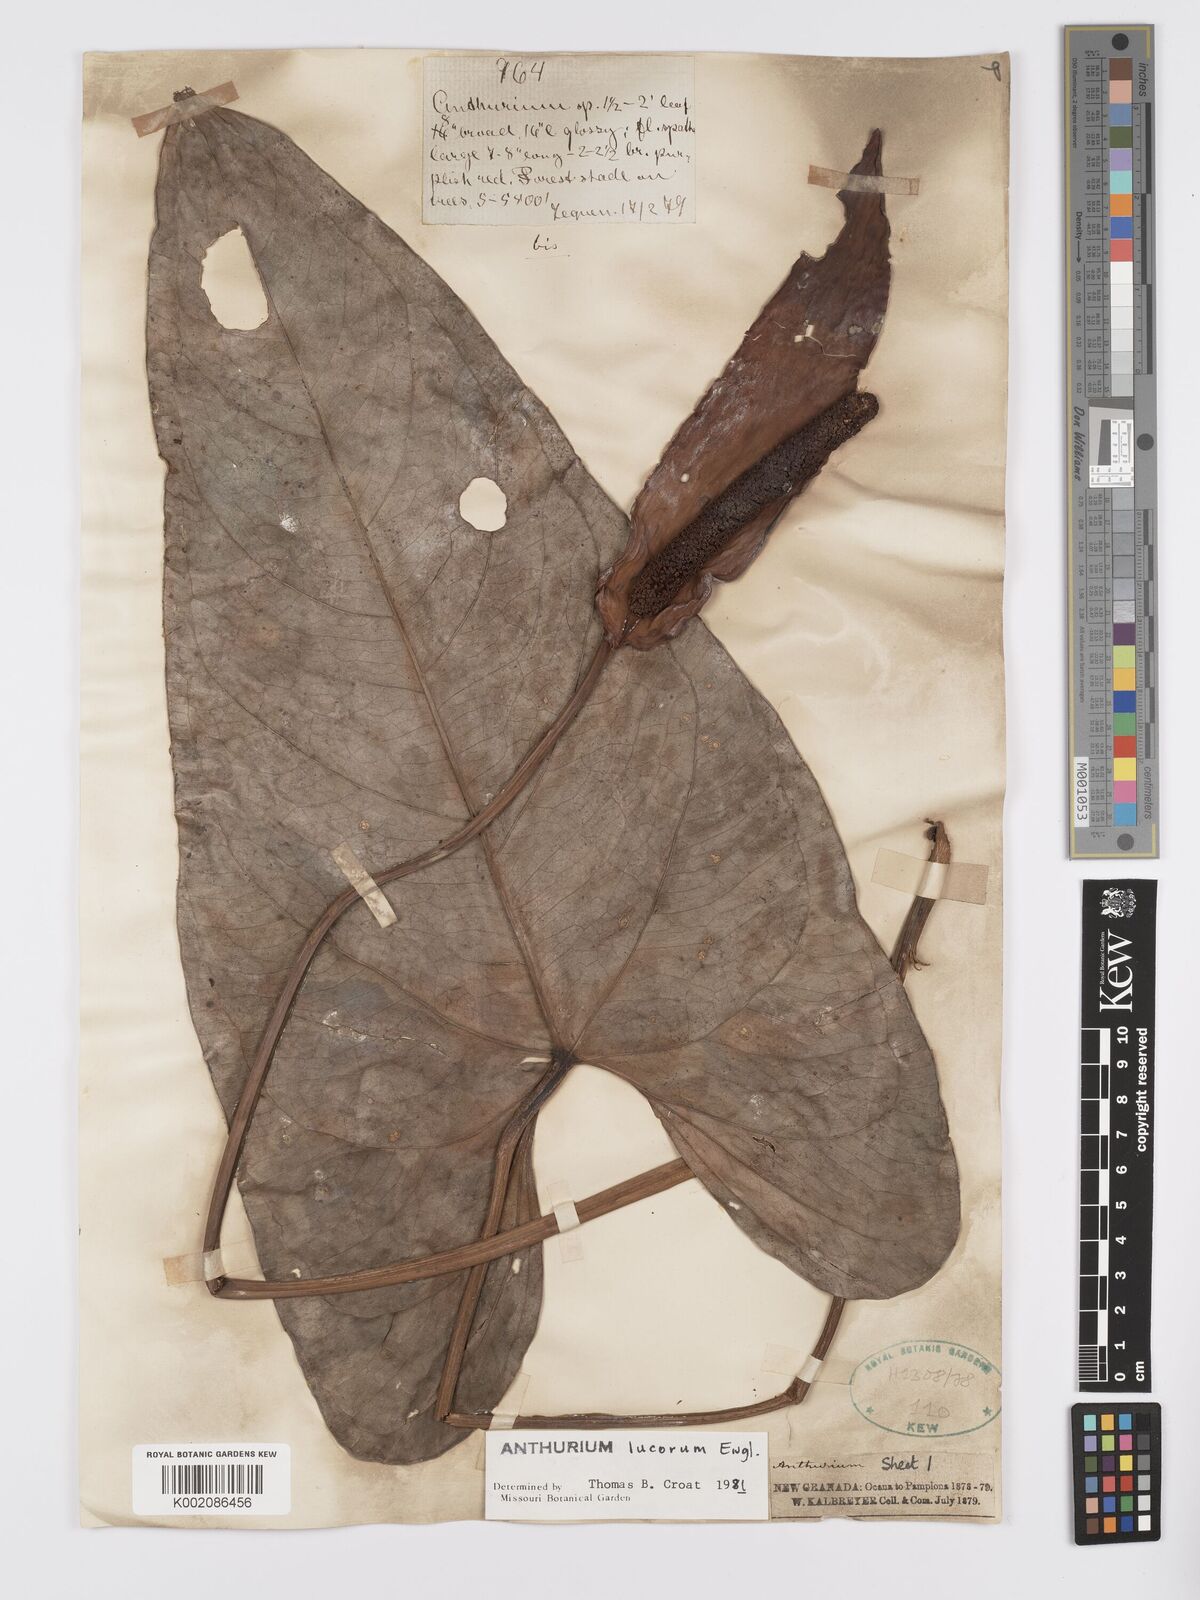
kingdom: Plantae
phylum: Tracheophyta
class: Liliopsida
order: Alismatales
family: Araceae
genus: Anthurium
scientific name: Anthurium lucorum
